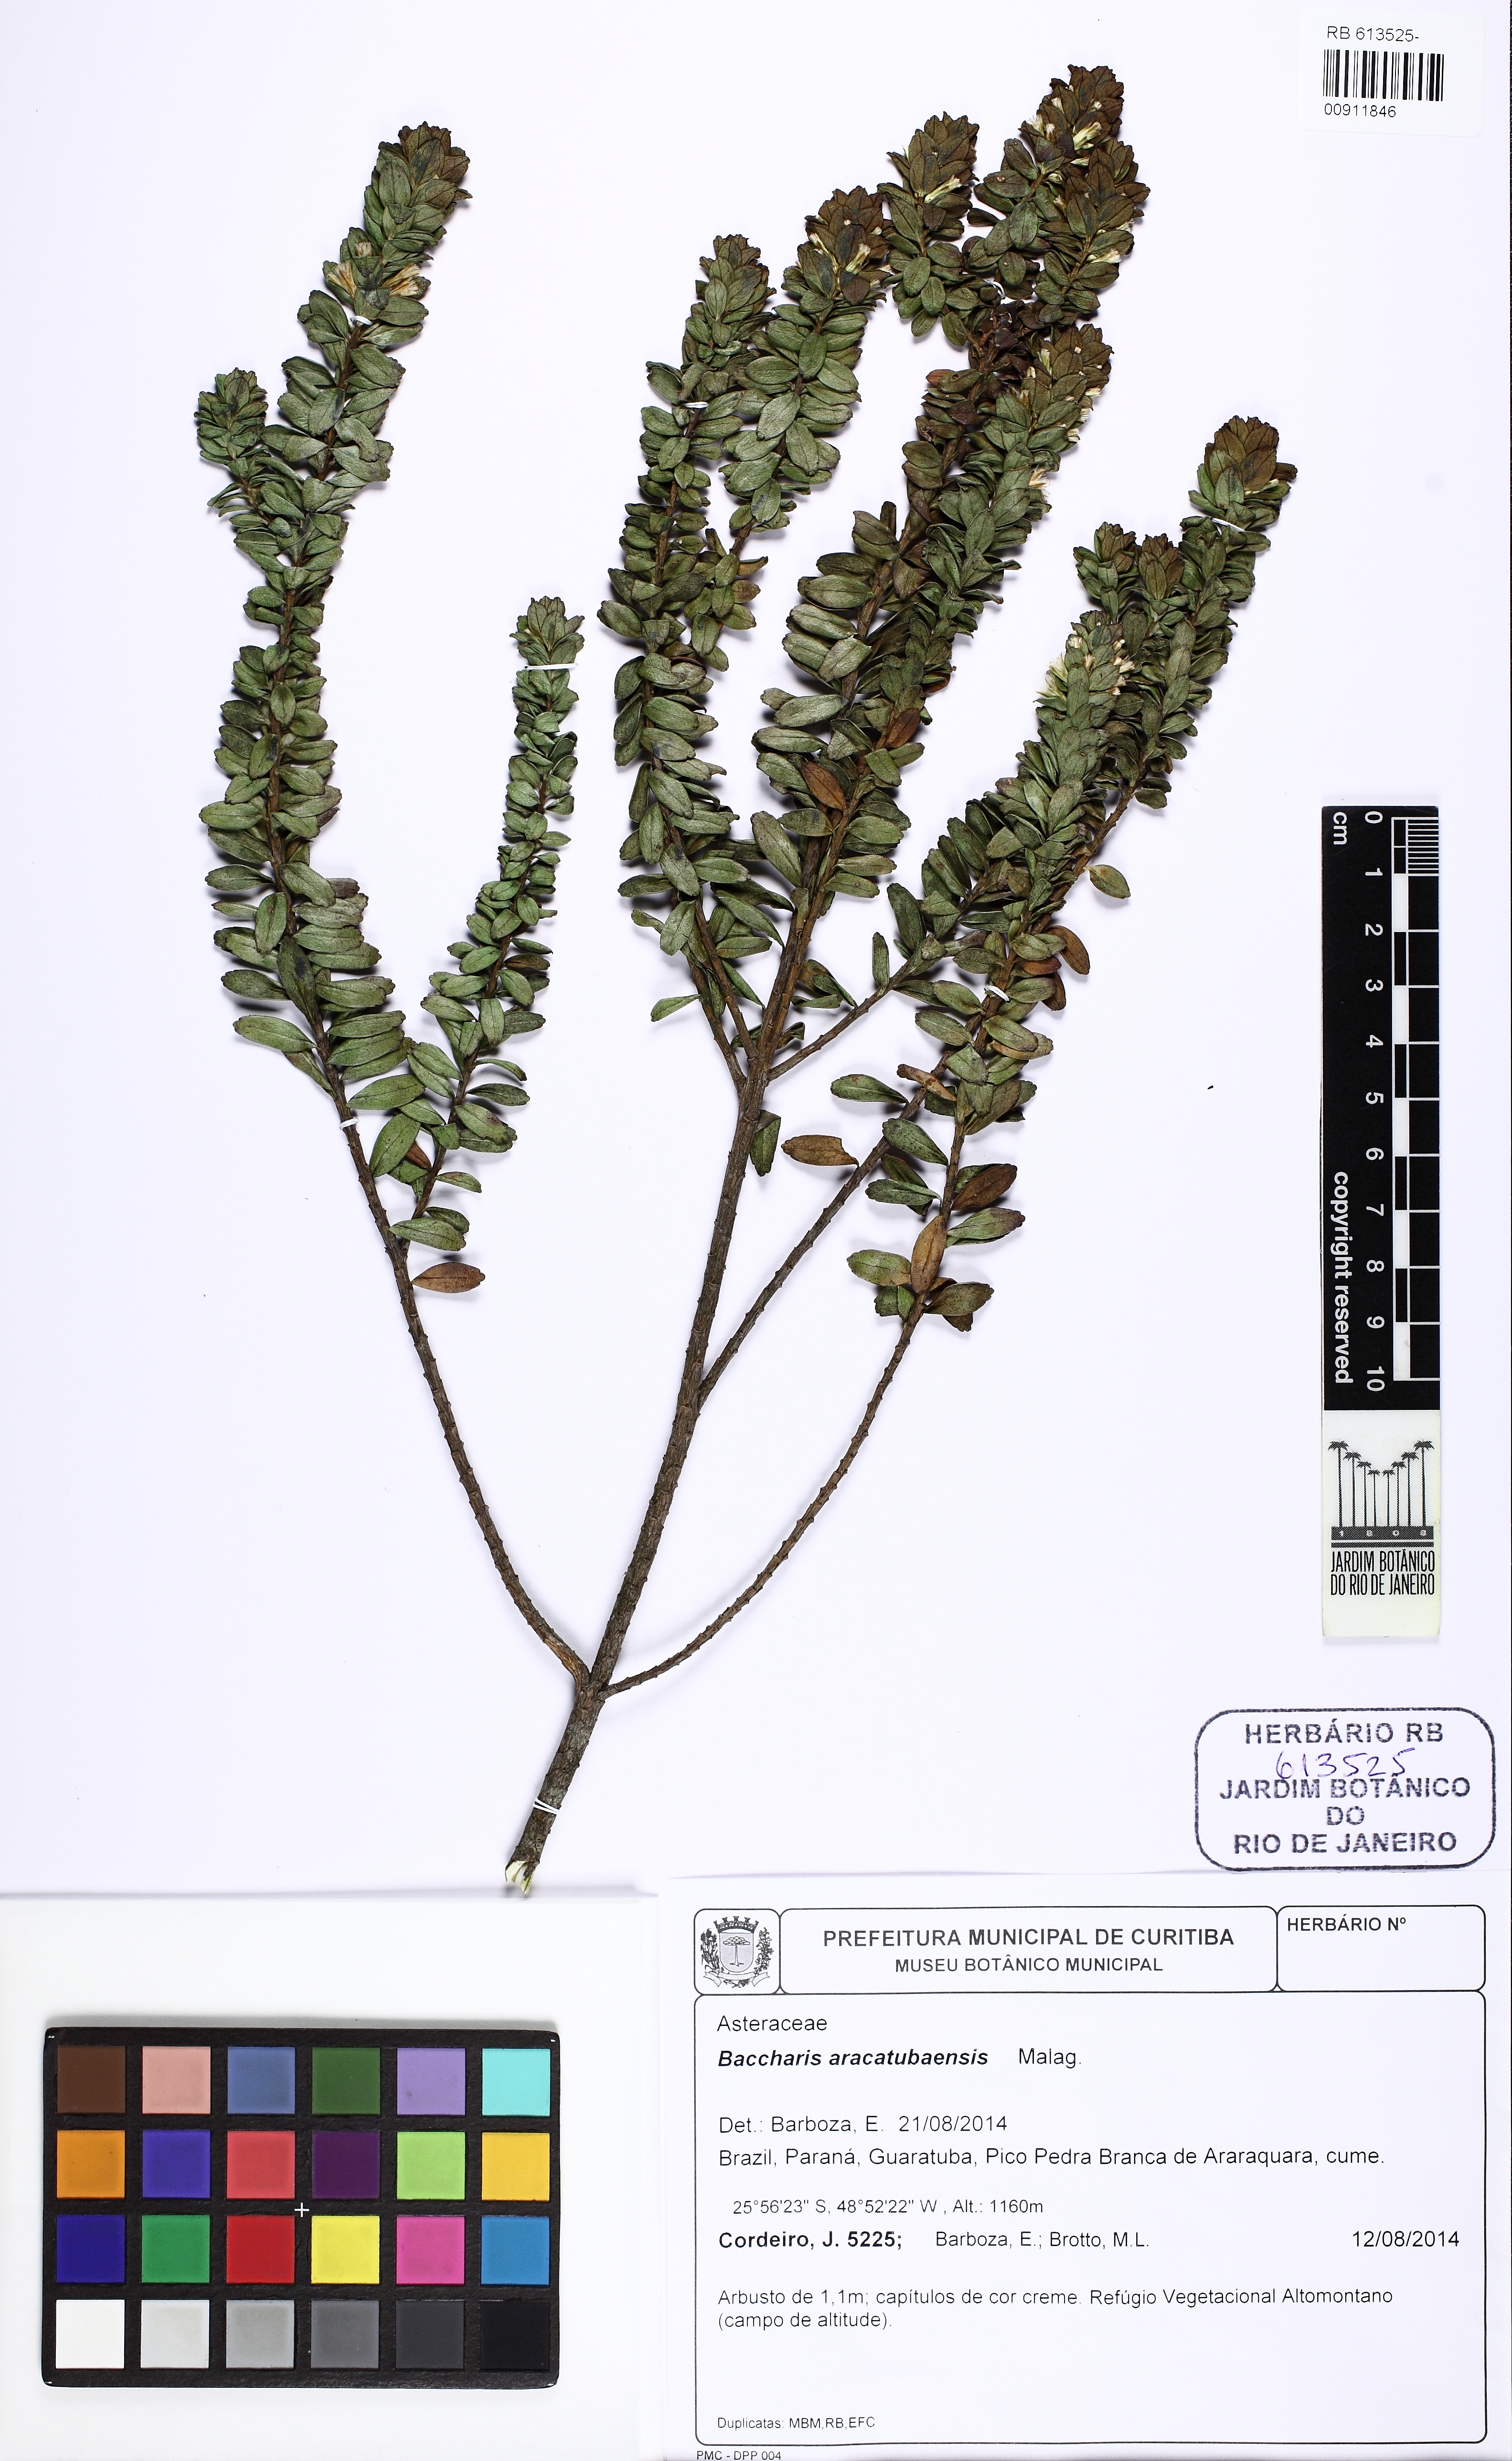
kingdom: Plantae
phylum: Tracheophyta
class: Magnoliopsida
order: Asterales
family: Asteraceae
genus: Baccharis
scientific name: Baccharis aracatubensis
